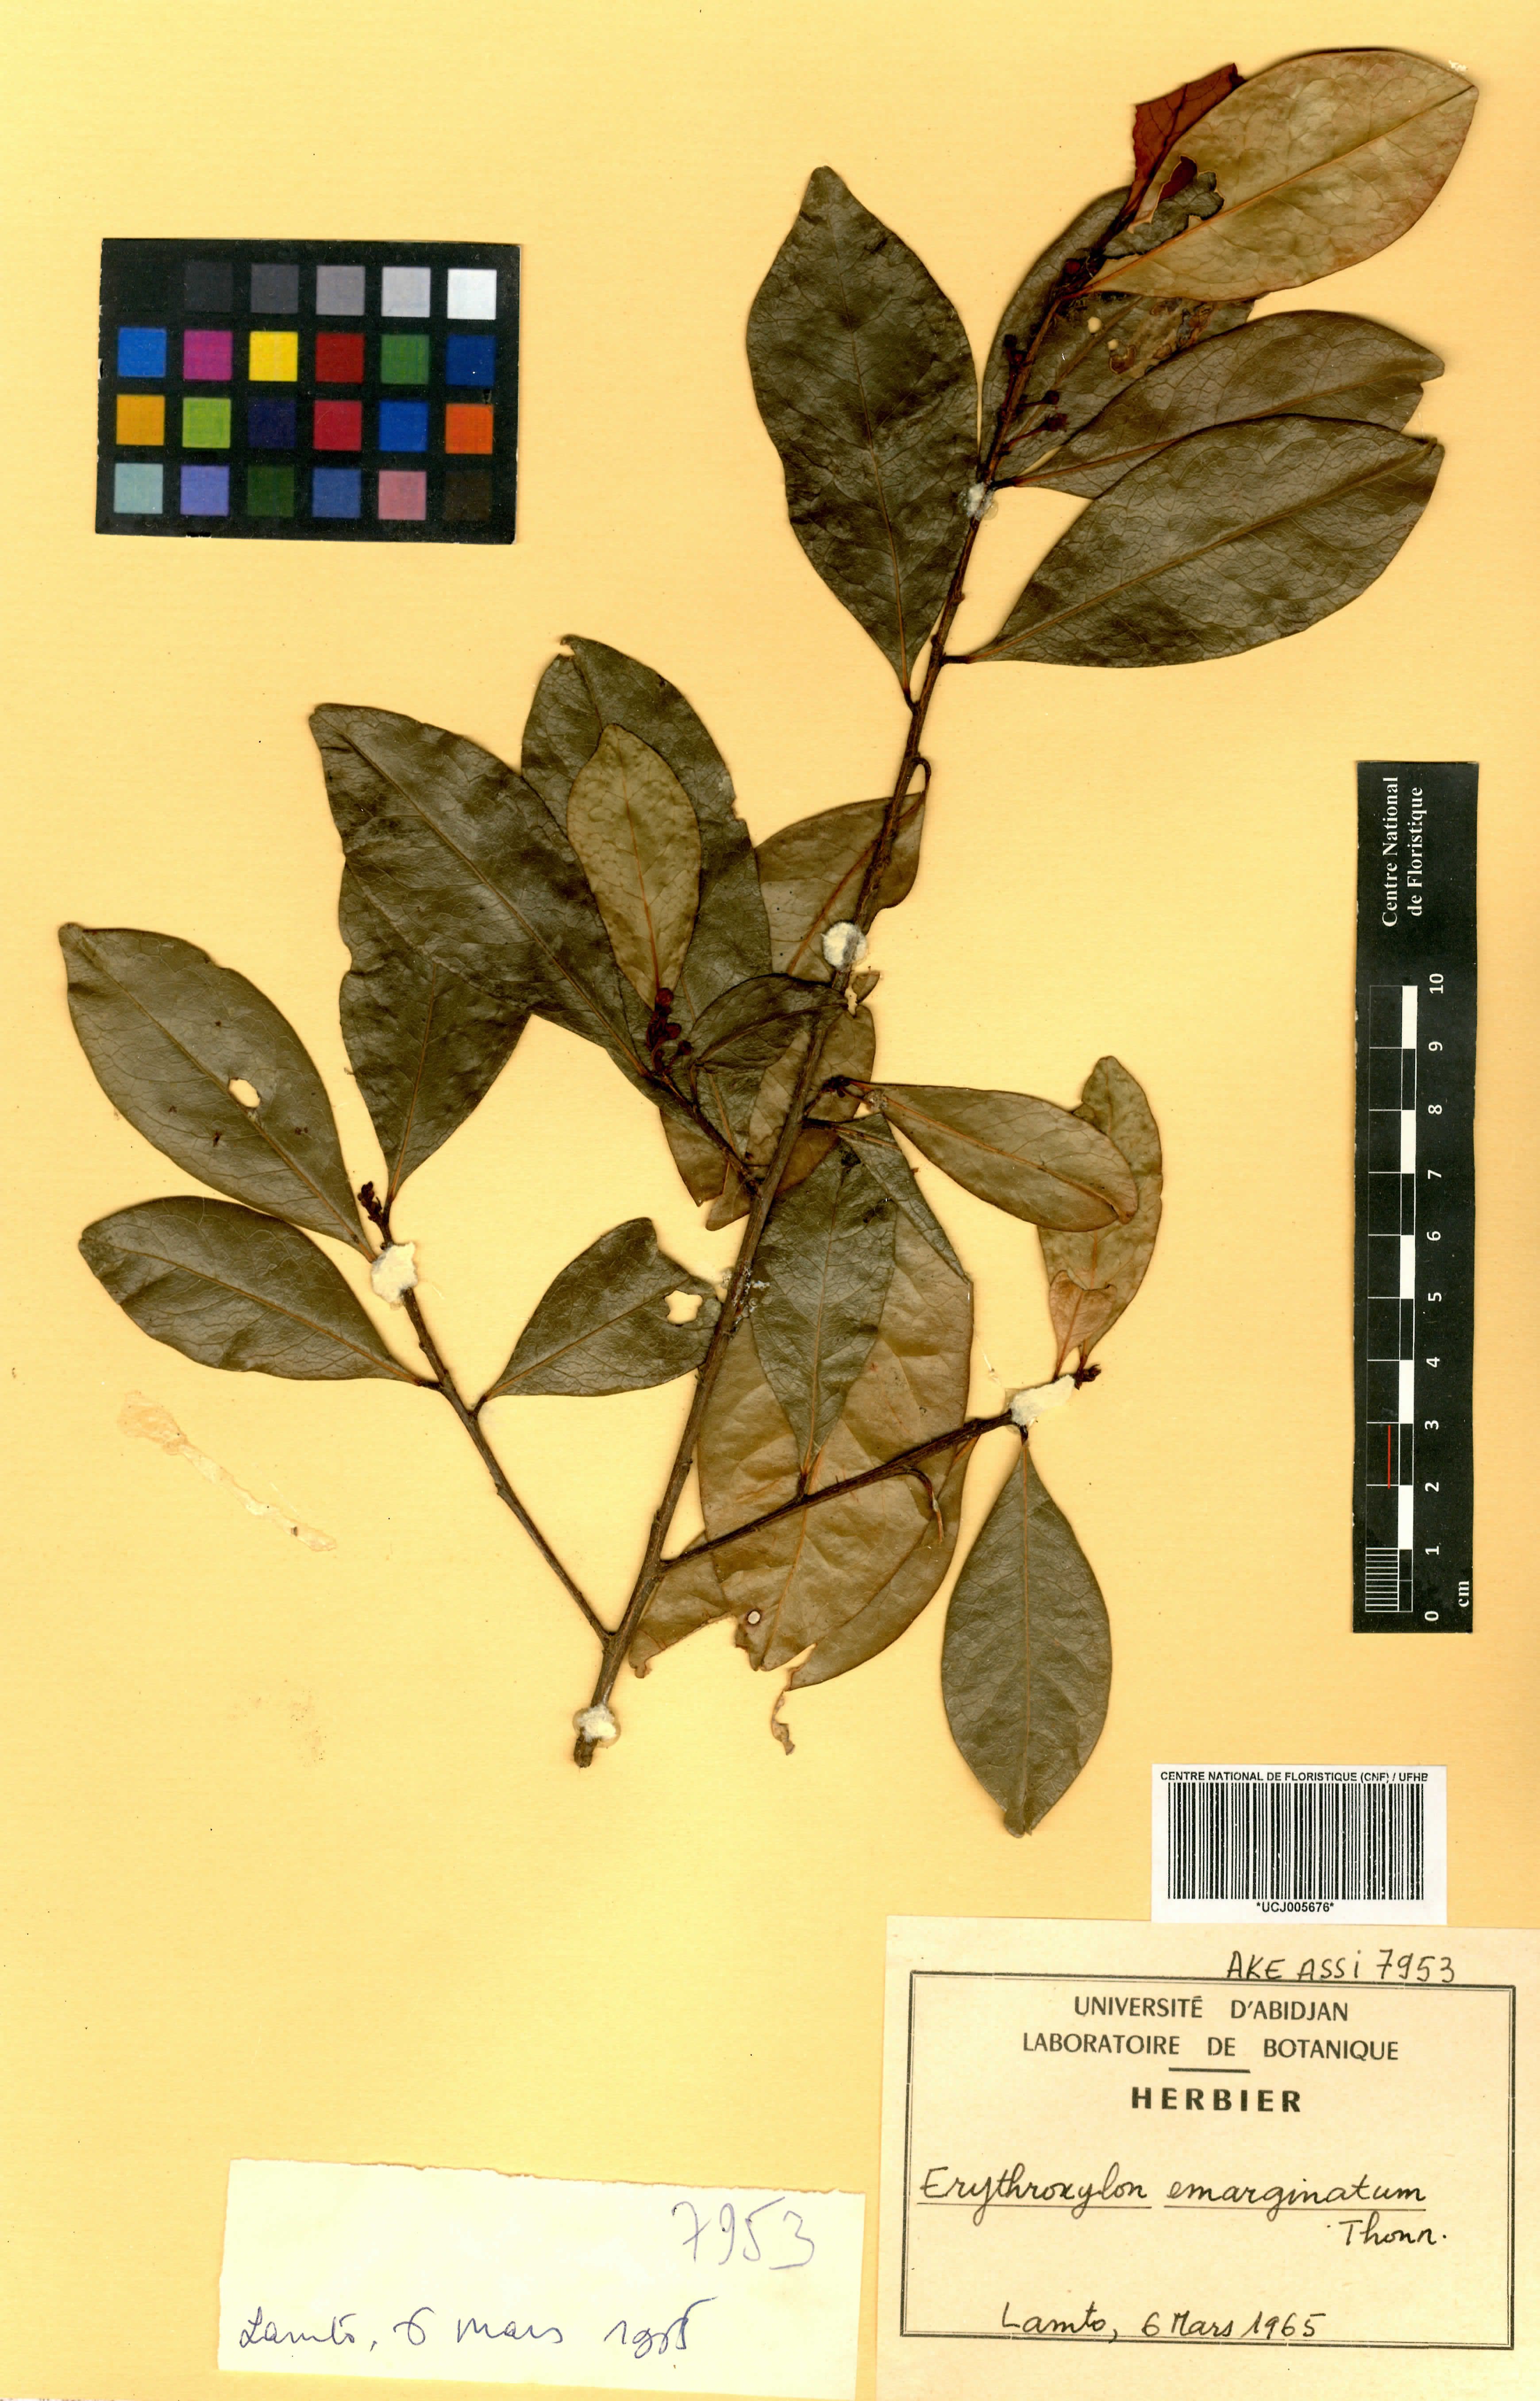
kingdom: Plantae
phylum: Tracheophyta
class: Magnoliopsida
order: Malpighiales
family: Erythroxylaceae
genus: Erythroxylum
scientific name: Erythroxylum emarginatum
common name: African coca-tree
